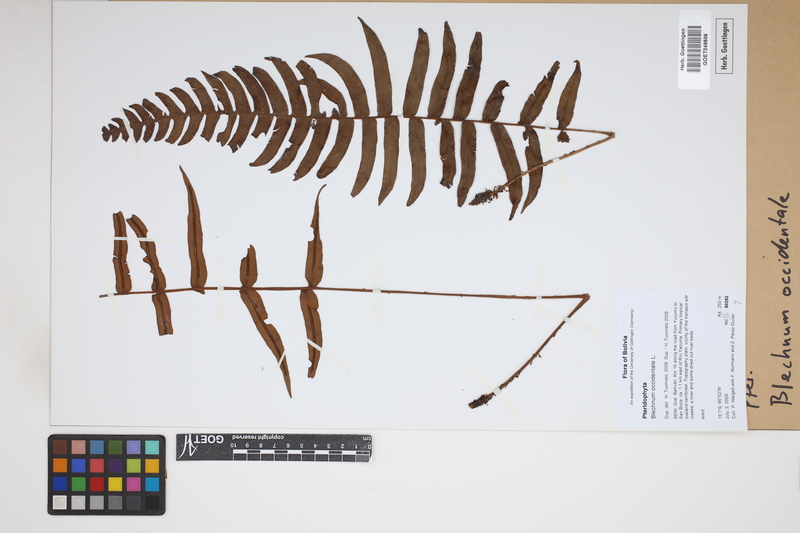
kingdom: Plantae
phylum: Tracheophyta
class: Polypodiopsida
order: Polypodiales
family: Blechnaceae
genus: Blechnum
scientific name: Blechnum occidentale
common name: Hammock fern
